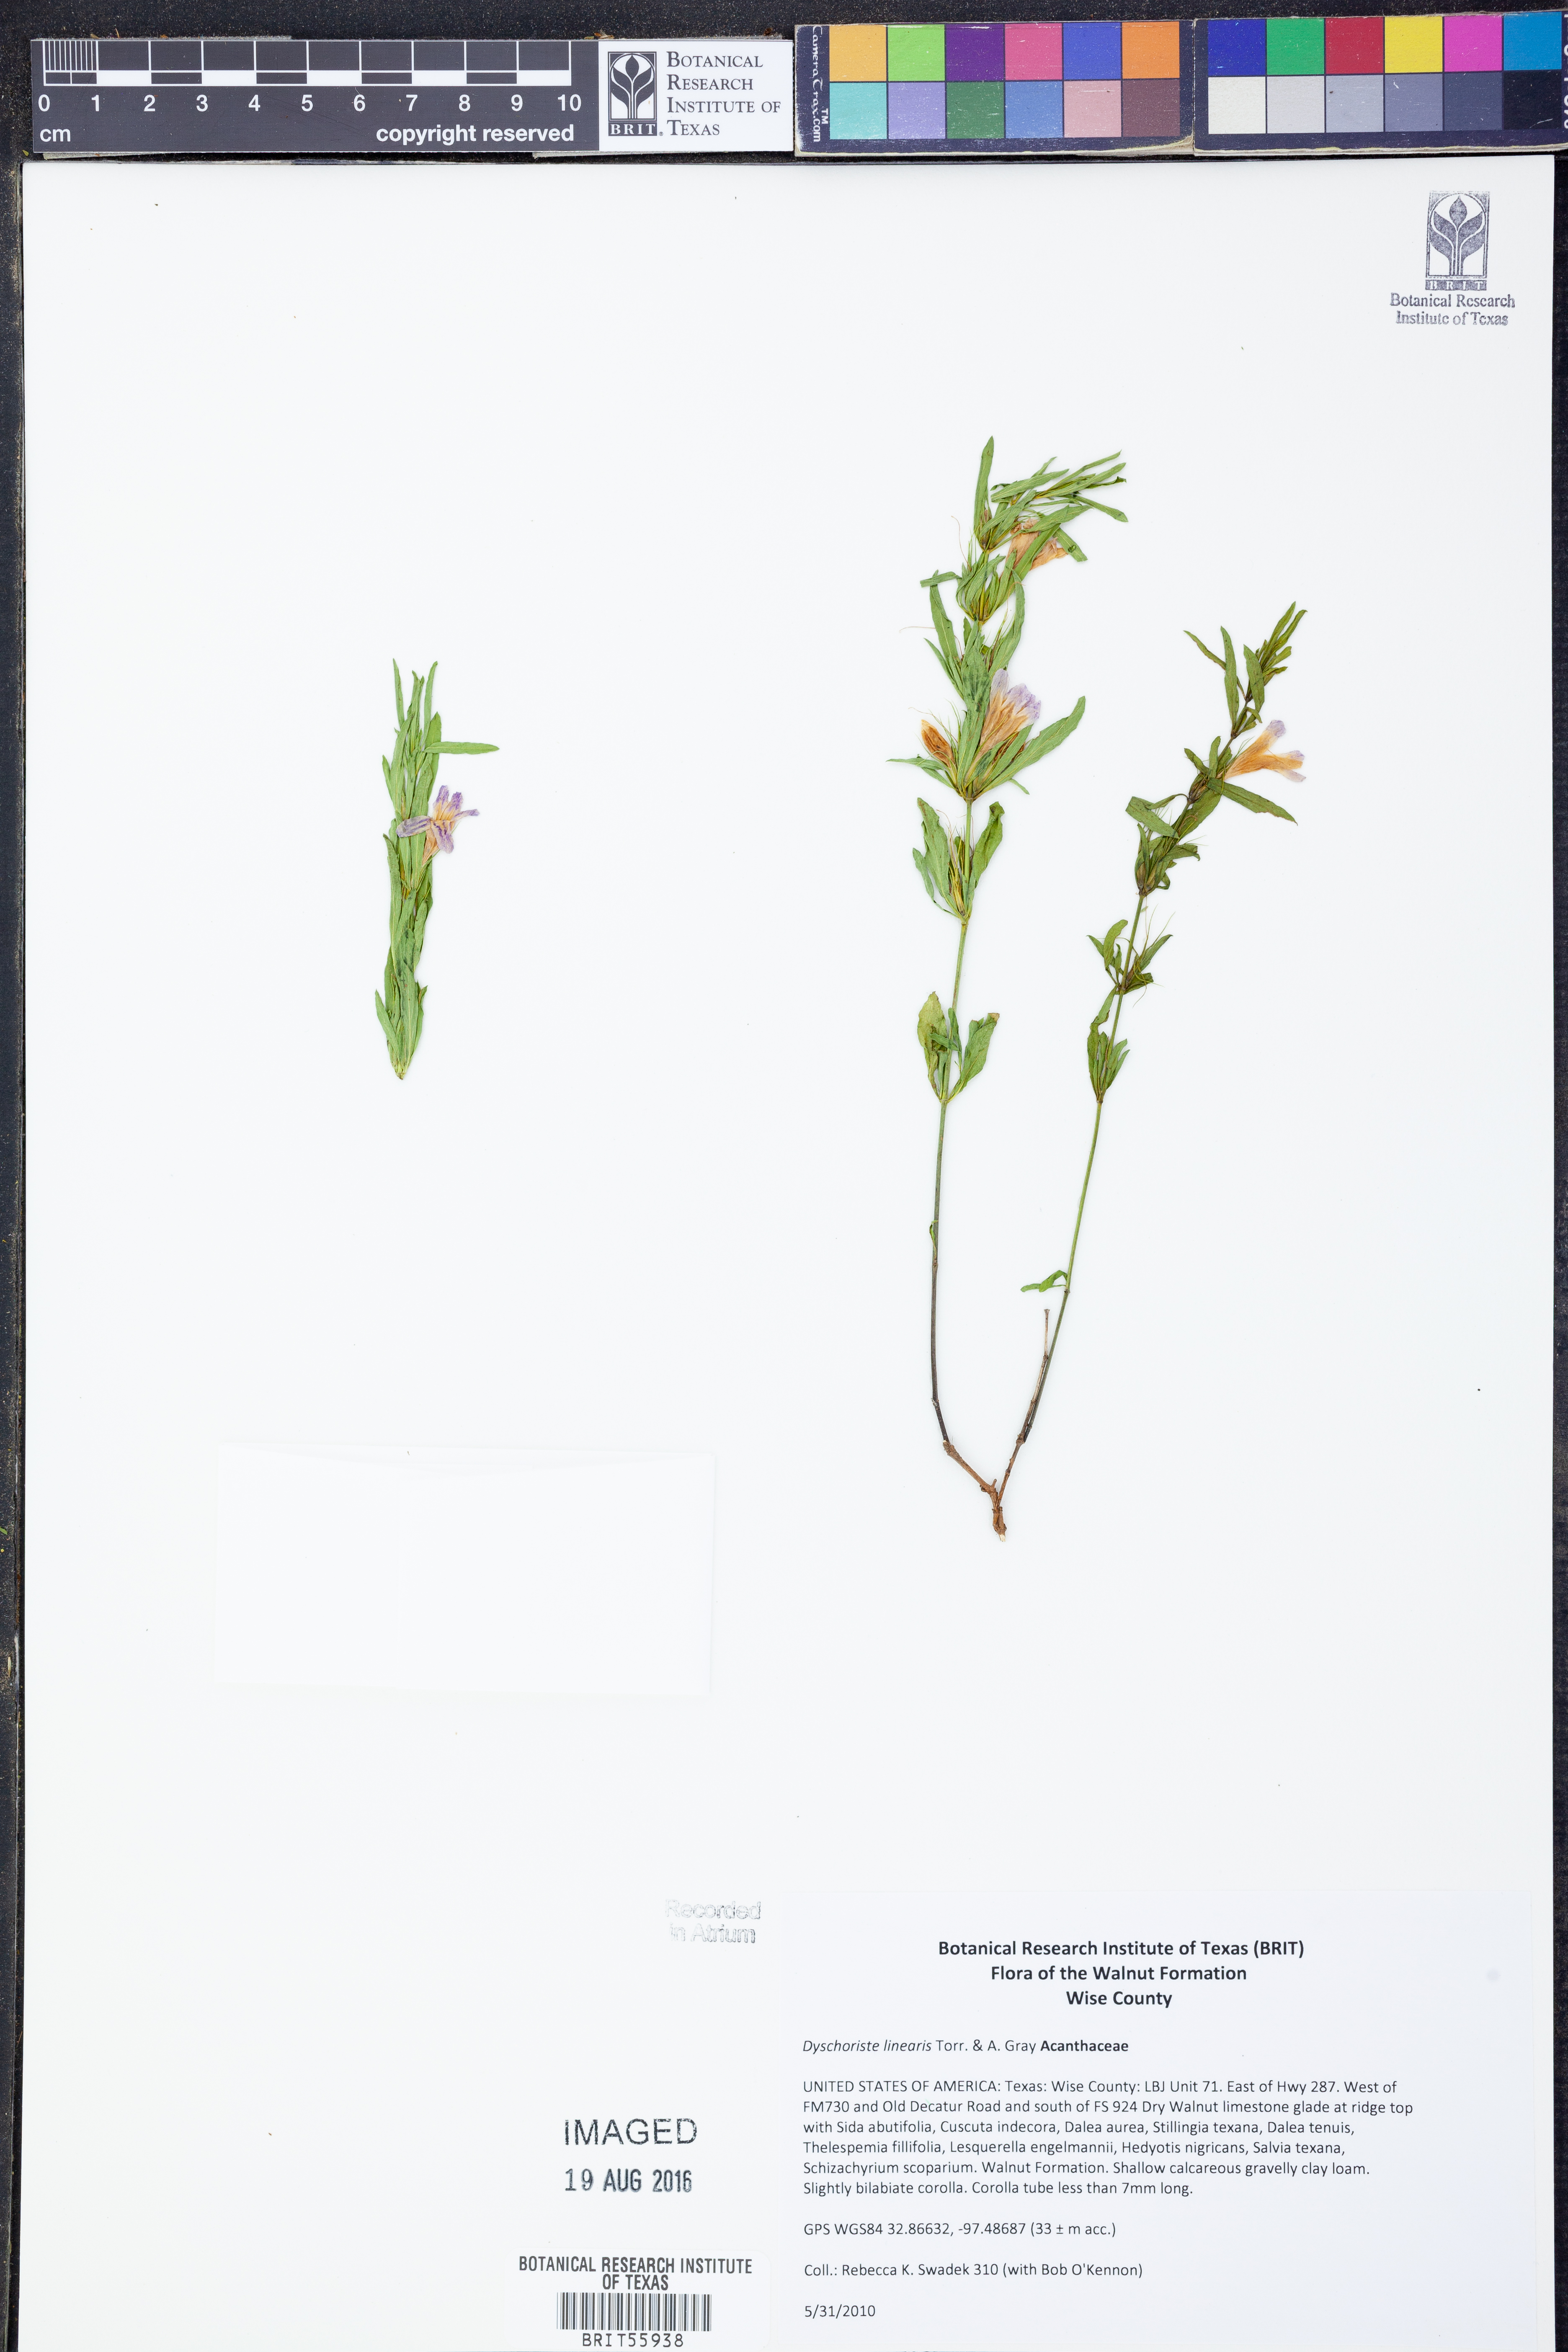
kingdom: Plantae
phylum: Tracheophyta
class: Magnoliopsida
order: Lamiales
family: Acanthaceae
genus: Dyschoriste
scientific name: Dyschoriste linearis
